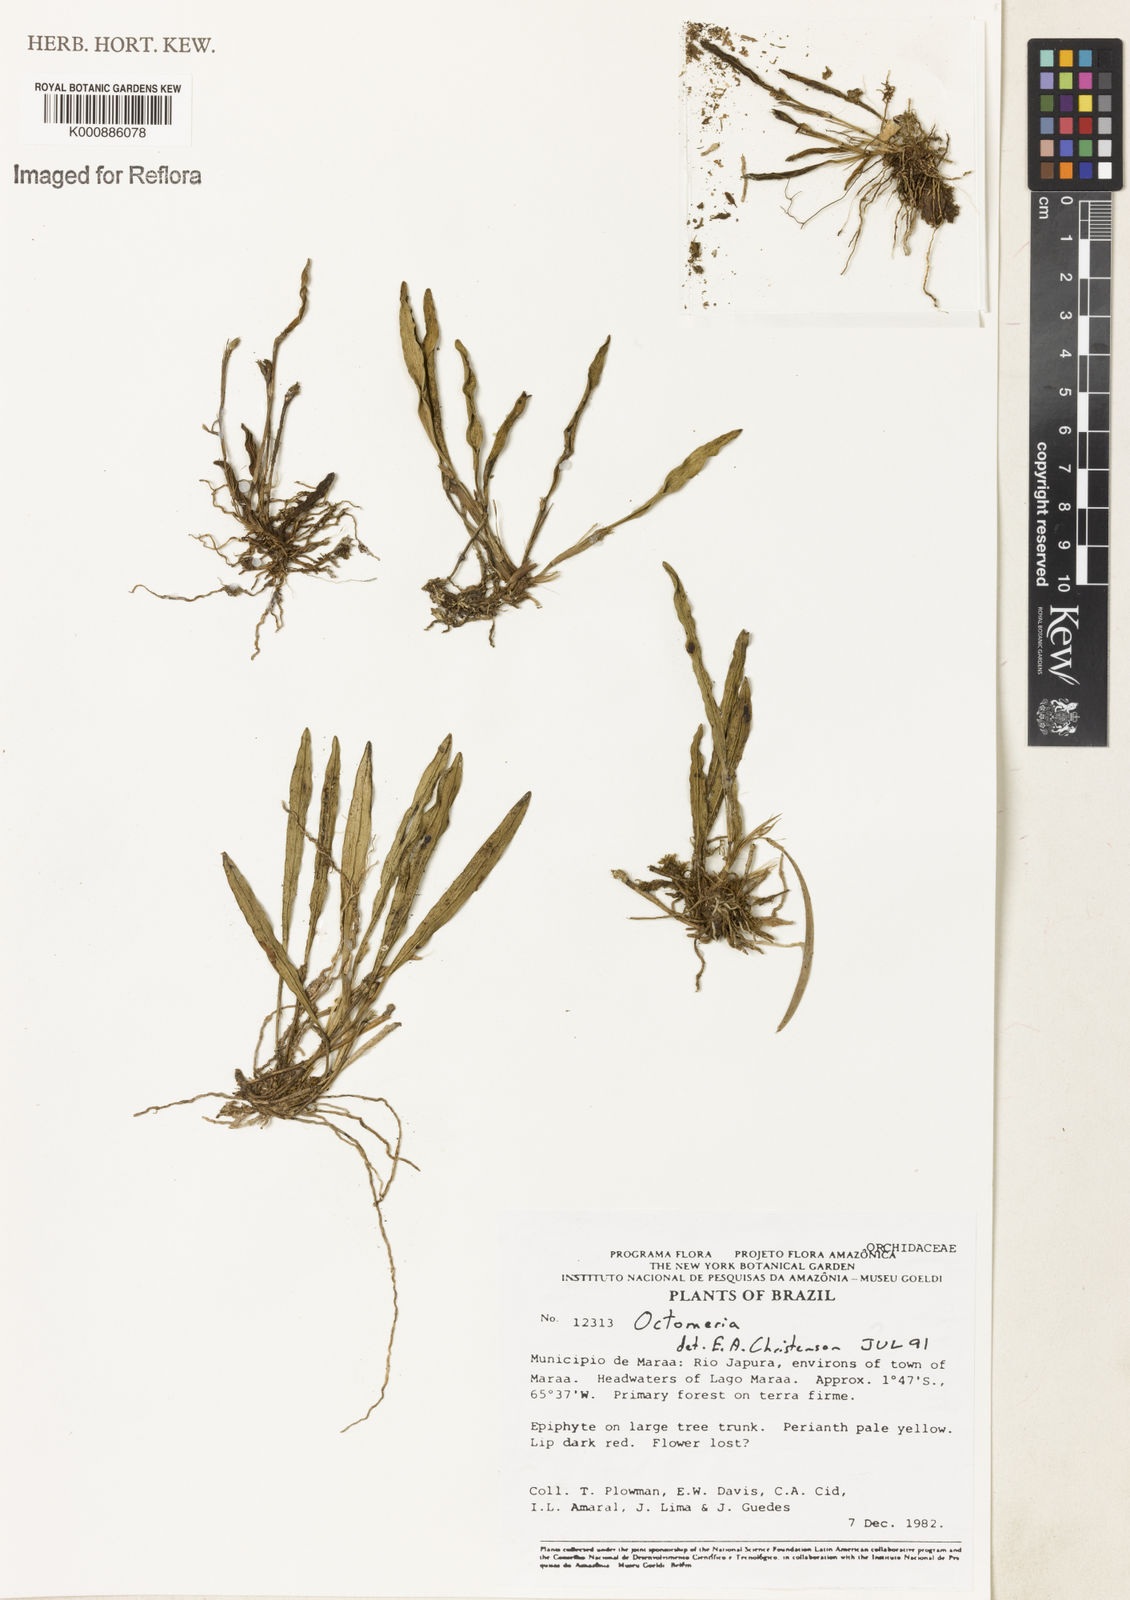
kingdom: Plantae
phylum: Tracheophyta
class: Liliopsida
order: Asparagales
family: Orchidaceae
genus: Octomeria
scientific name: Octomeria
